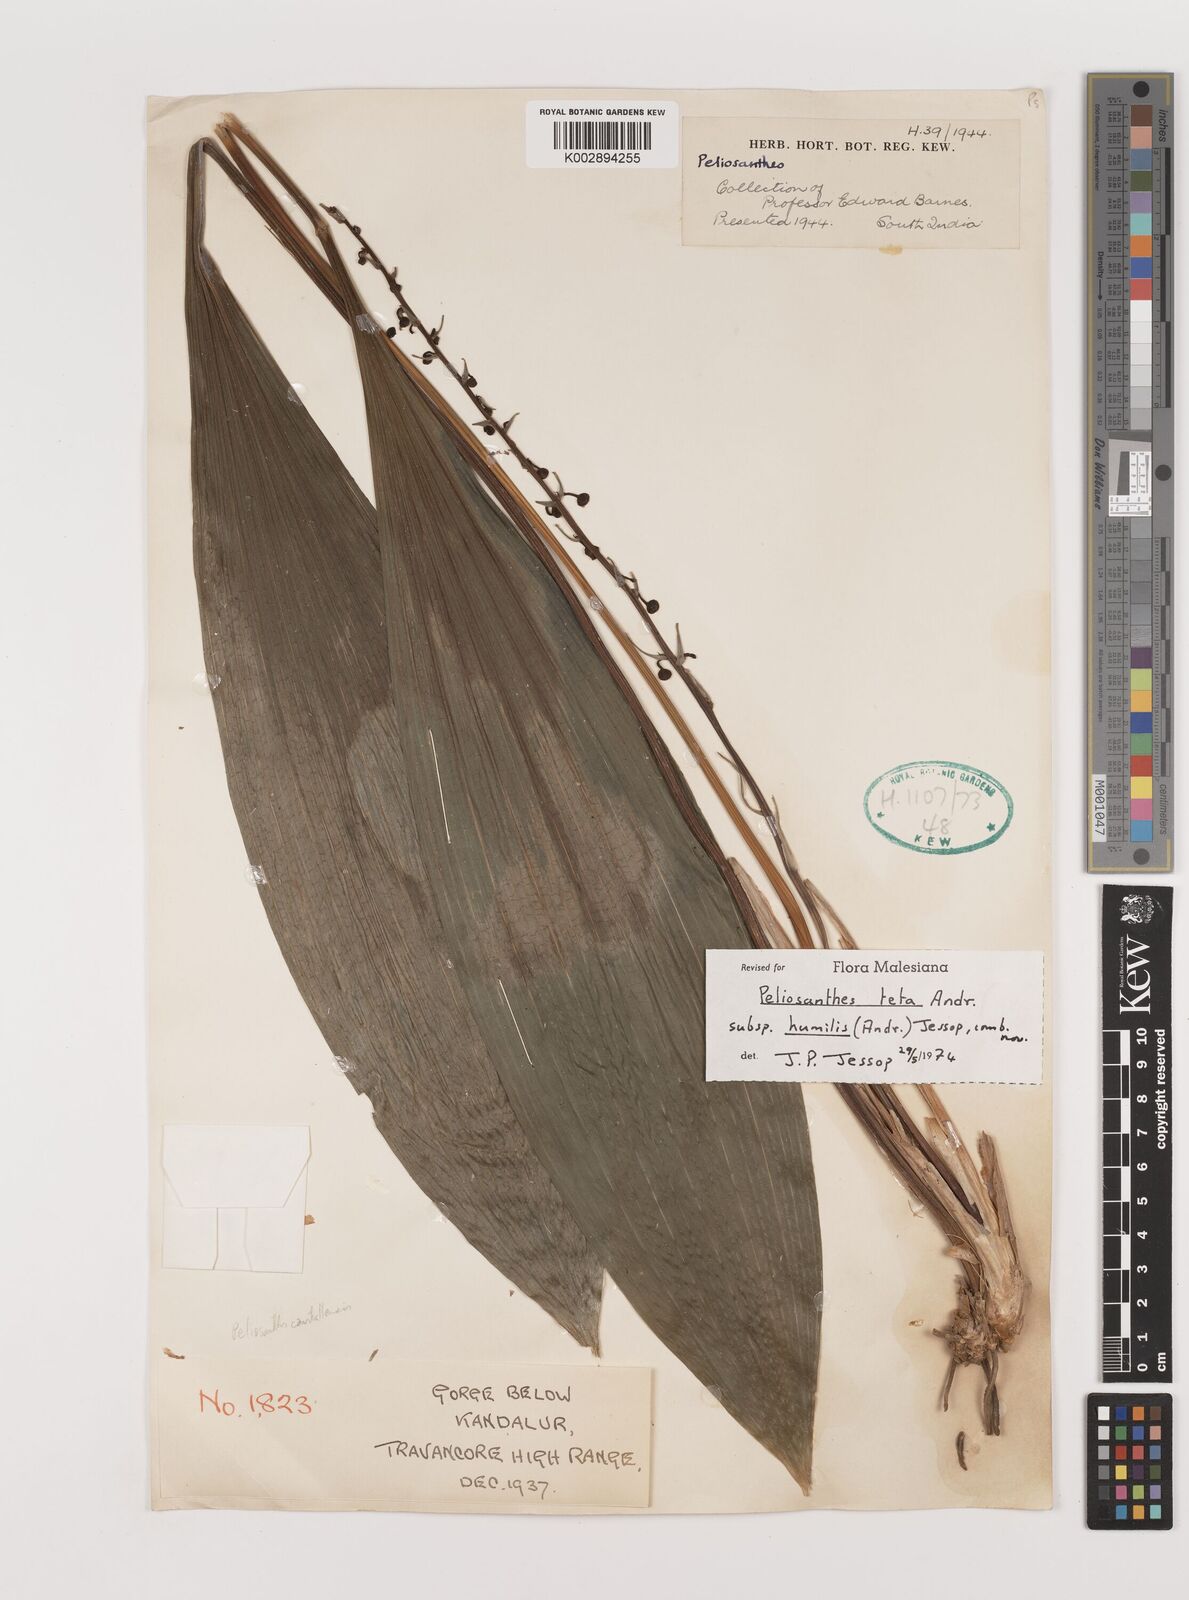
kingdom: Plantae
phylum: Tracheophyta
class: Liliopsida
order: Asparagales
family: Asparagaceae
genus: Peliosanthes
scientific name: Peliosanthes teta
